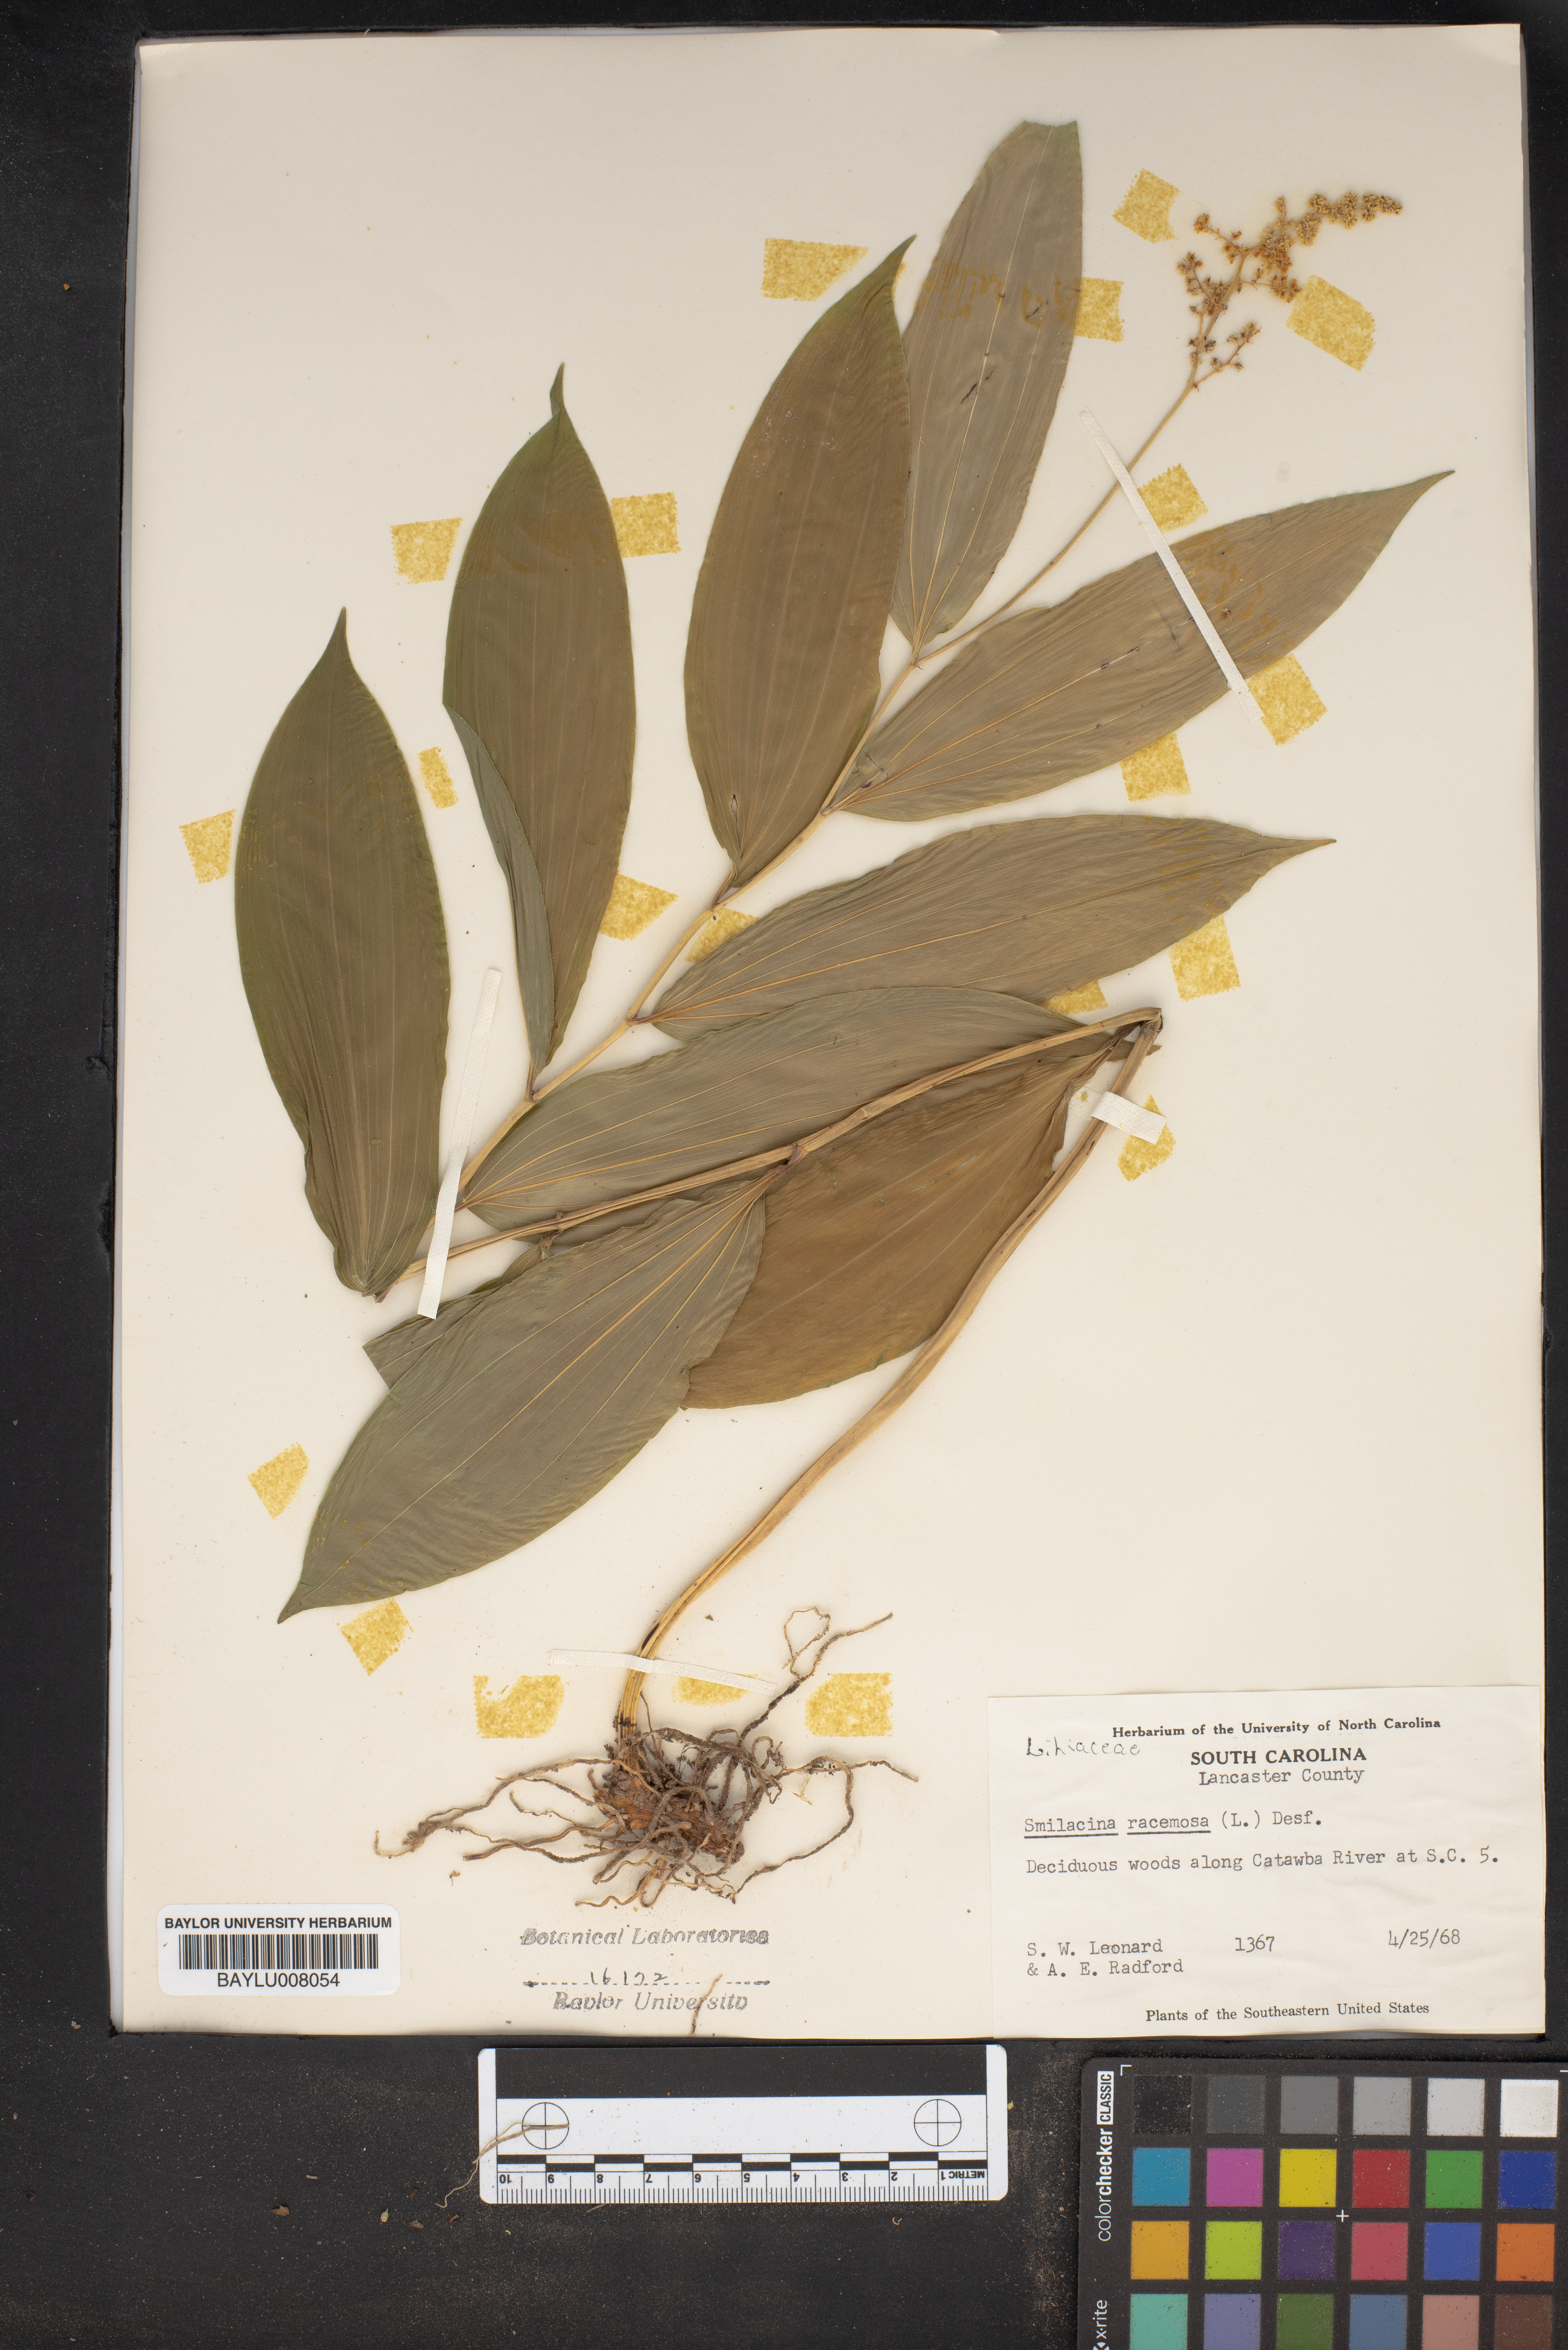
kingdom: Plantae
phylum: Tracheophyta
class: Liliopsida
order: Asparagales
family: Asparagaceae
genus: Maianthemum
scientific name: Maianthemum racemosum
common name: False spikenard
